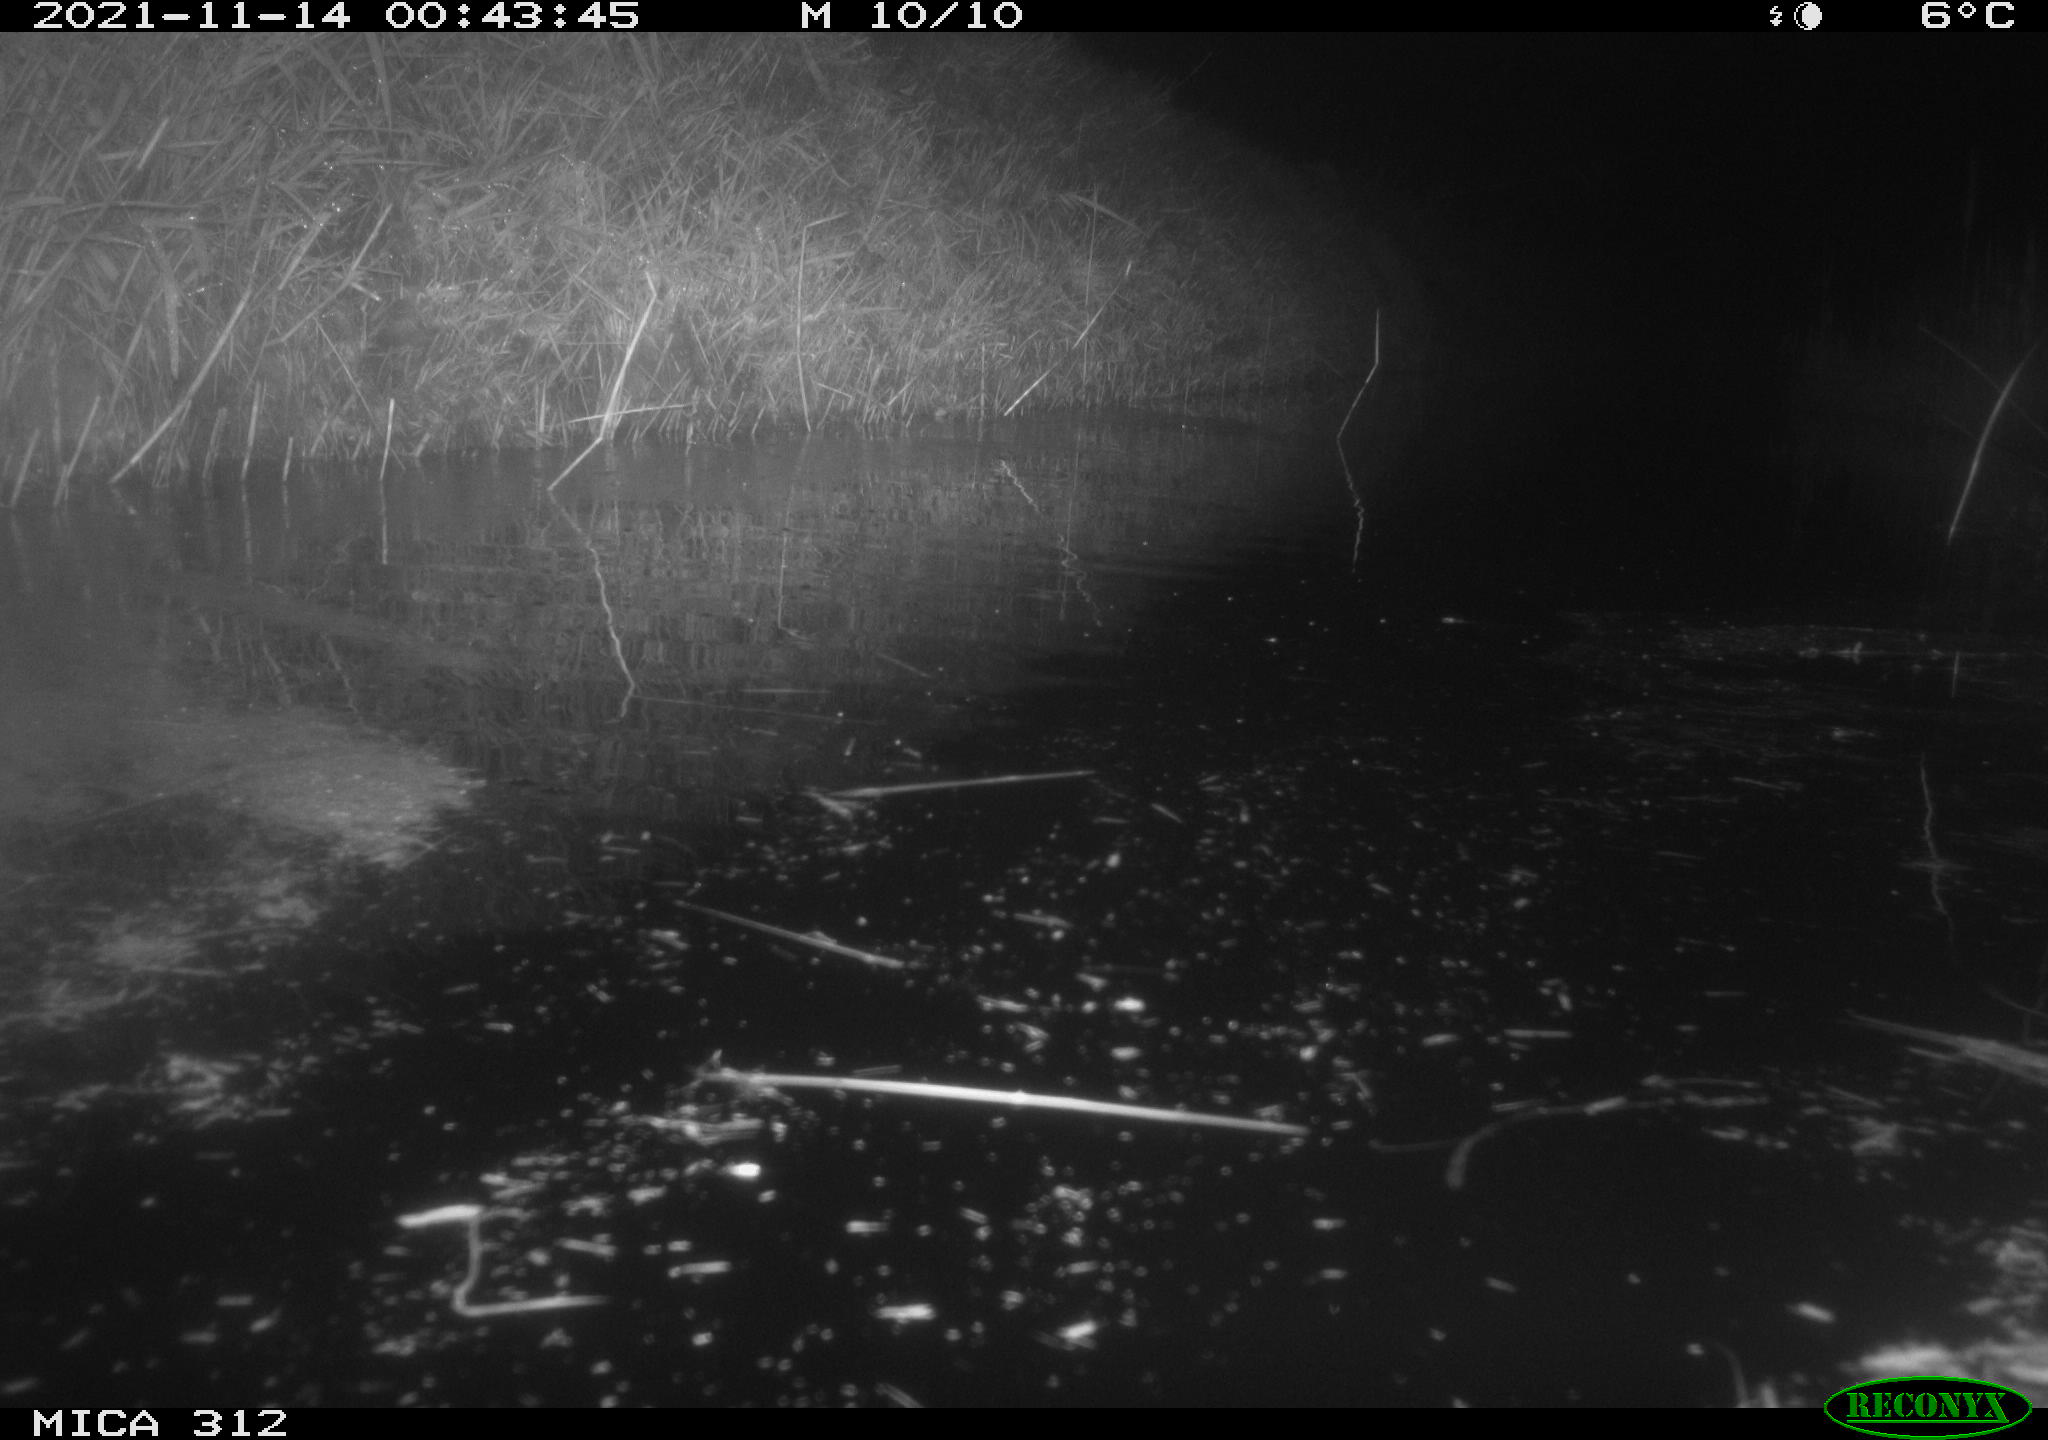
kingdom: Animalia
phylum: Chordata
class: Mammalia
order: Rodentia
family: Muridae
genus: Rattus
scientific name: Rattus norvegicus
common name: Brown rat
